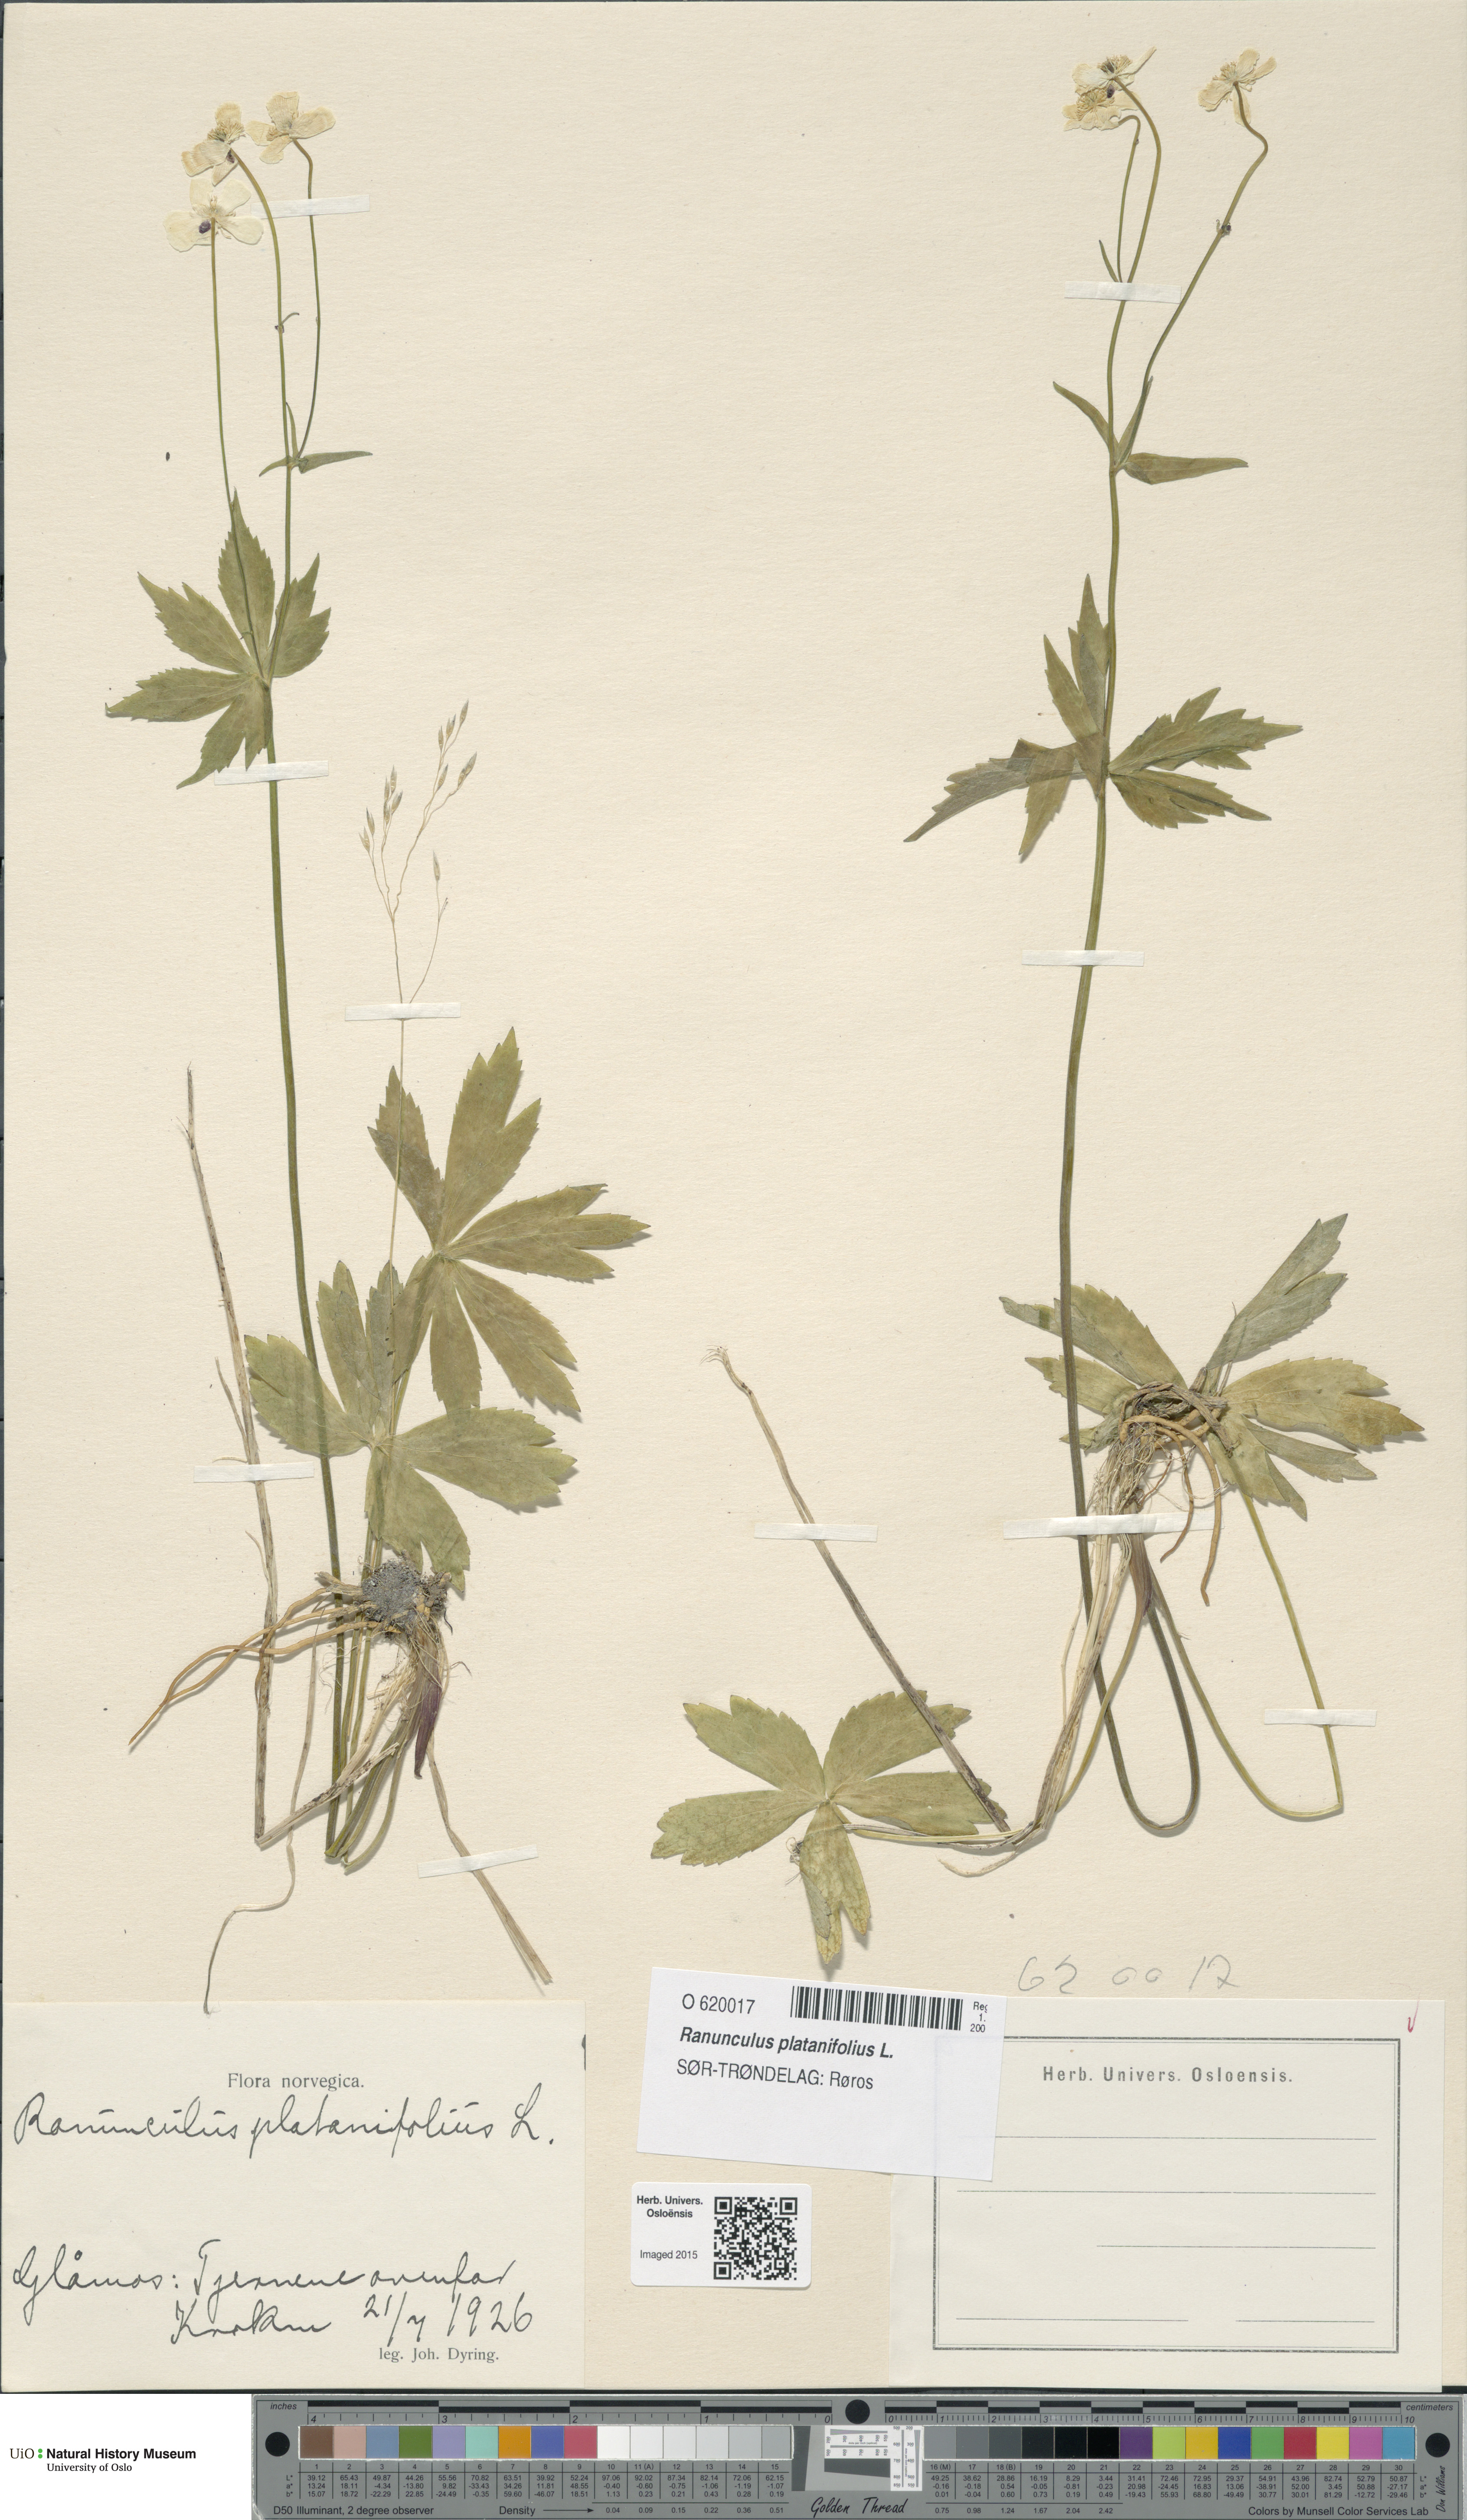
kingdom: Plantae
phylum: Tracheophyta
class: Magnoliopsida
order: Ranunculales
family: Ranunculaceae
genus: Ranunculus
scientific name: Ranunculus platanifolius
